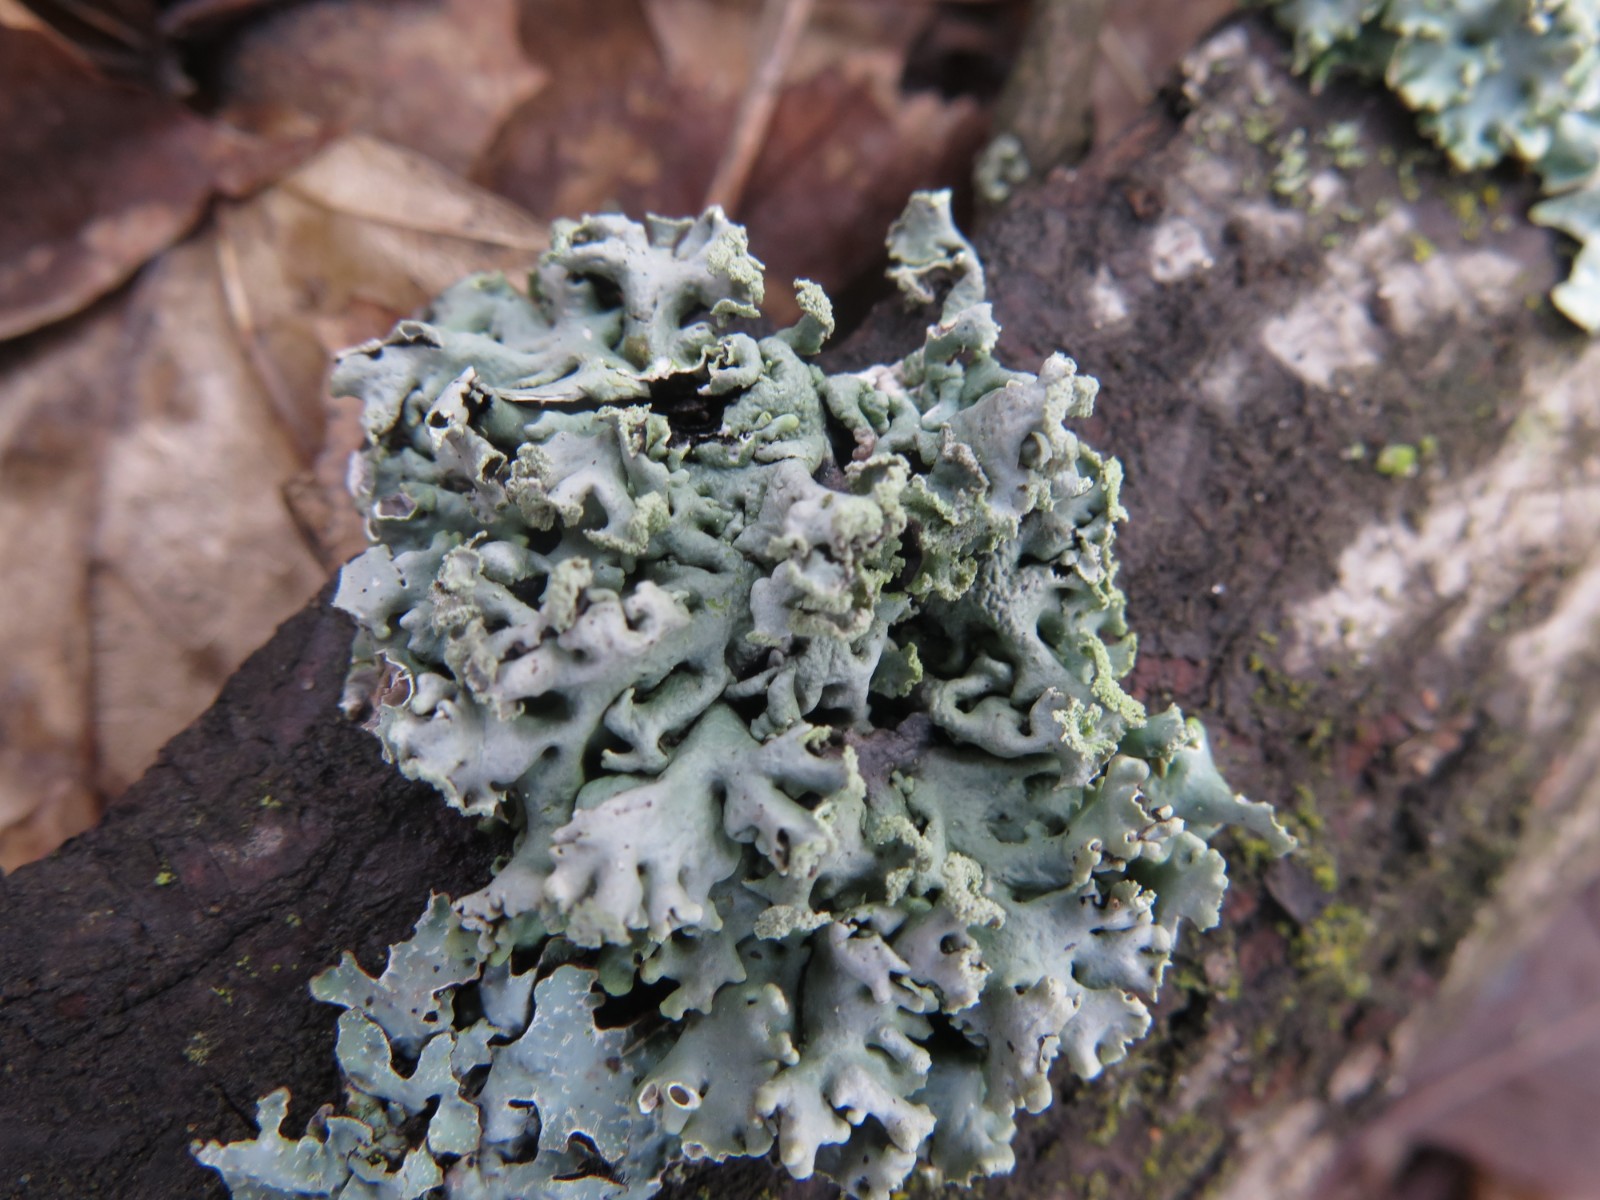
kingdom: Fungi
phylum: Ascomycota
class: Lecanoromycetes
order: Lecanorales
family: Parmeliaceae
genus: Hypogymnia
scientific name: Hypogymnia physodes
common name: almindelig kvistlav
